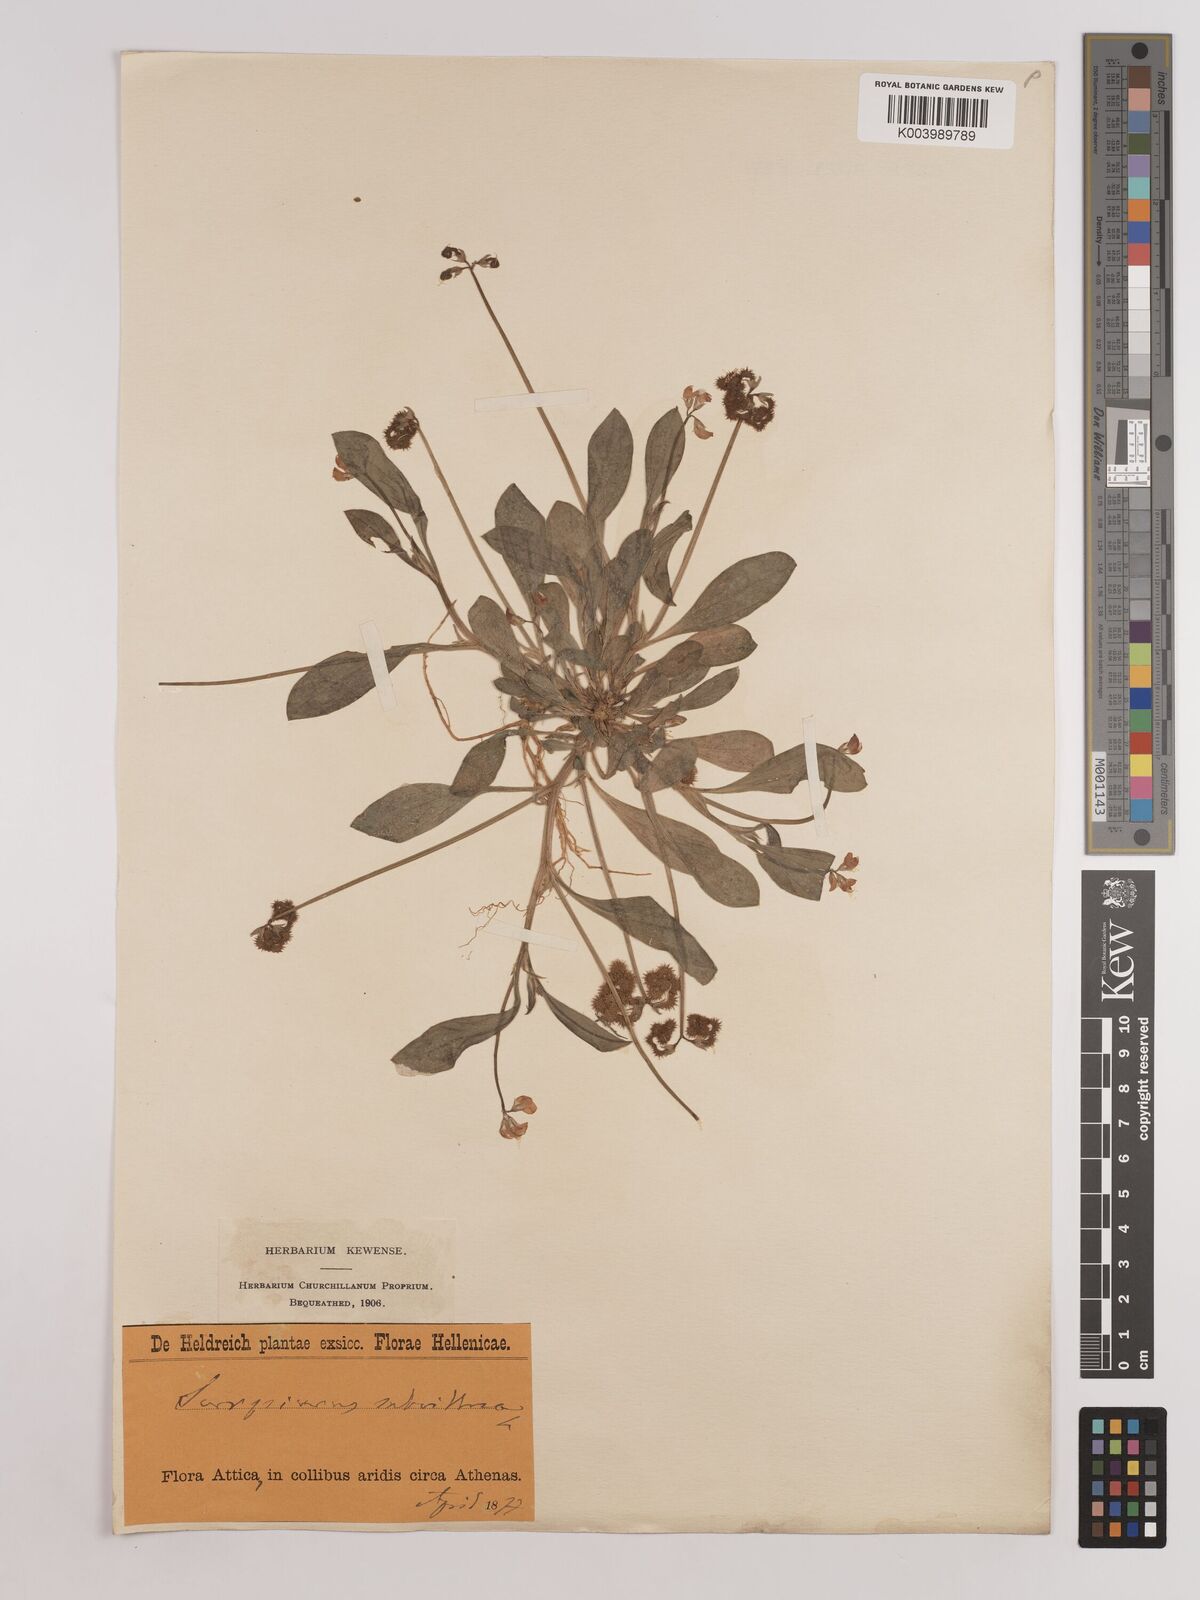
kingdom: Plantae
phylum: Tracheophyta
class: Magnoliopsida
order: Fabales
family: Fabaceae
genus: Scorpiurus
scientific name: Scorpiurus muricatus
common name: Caterpillar-plant
